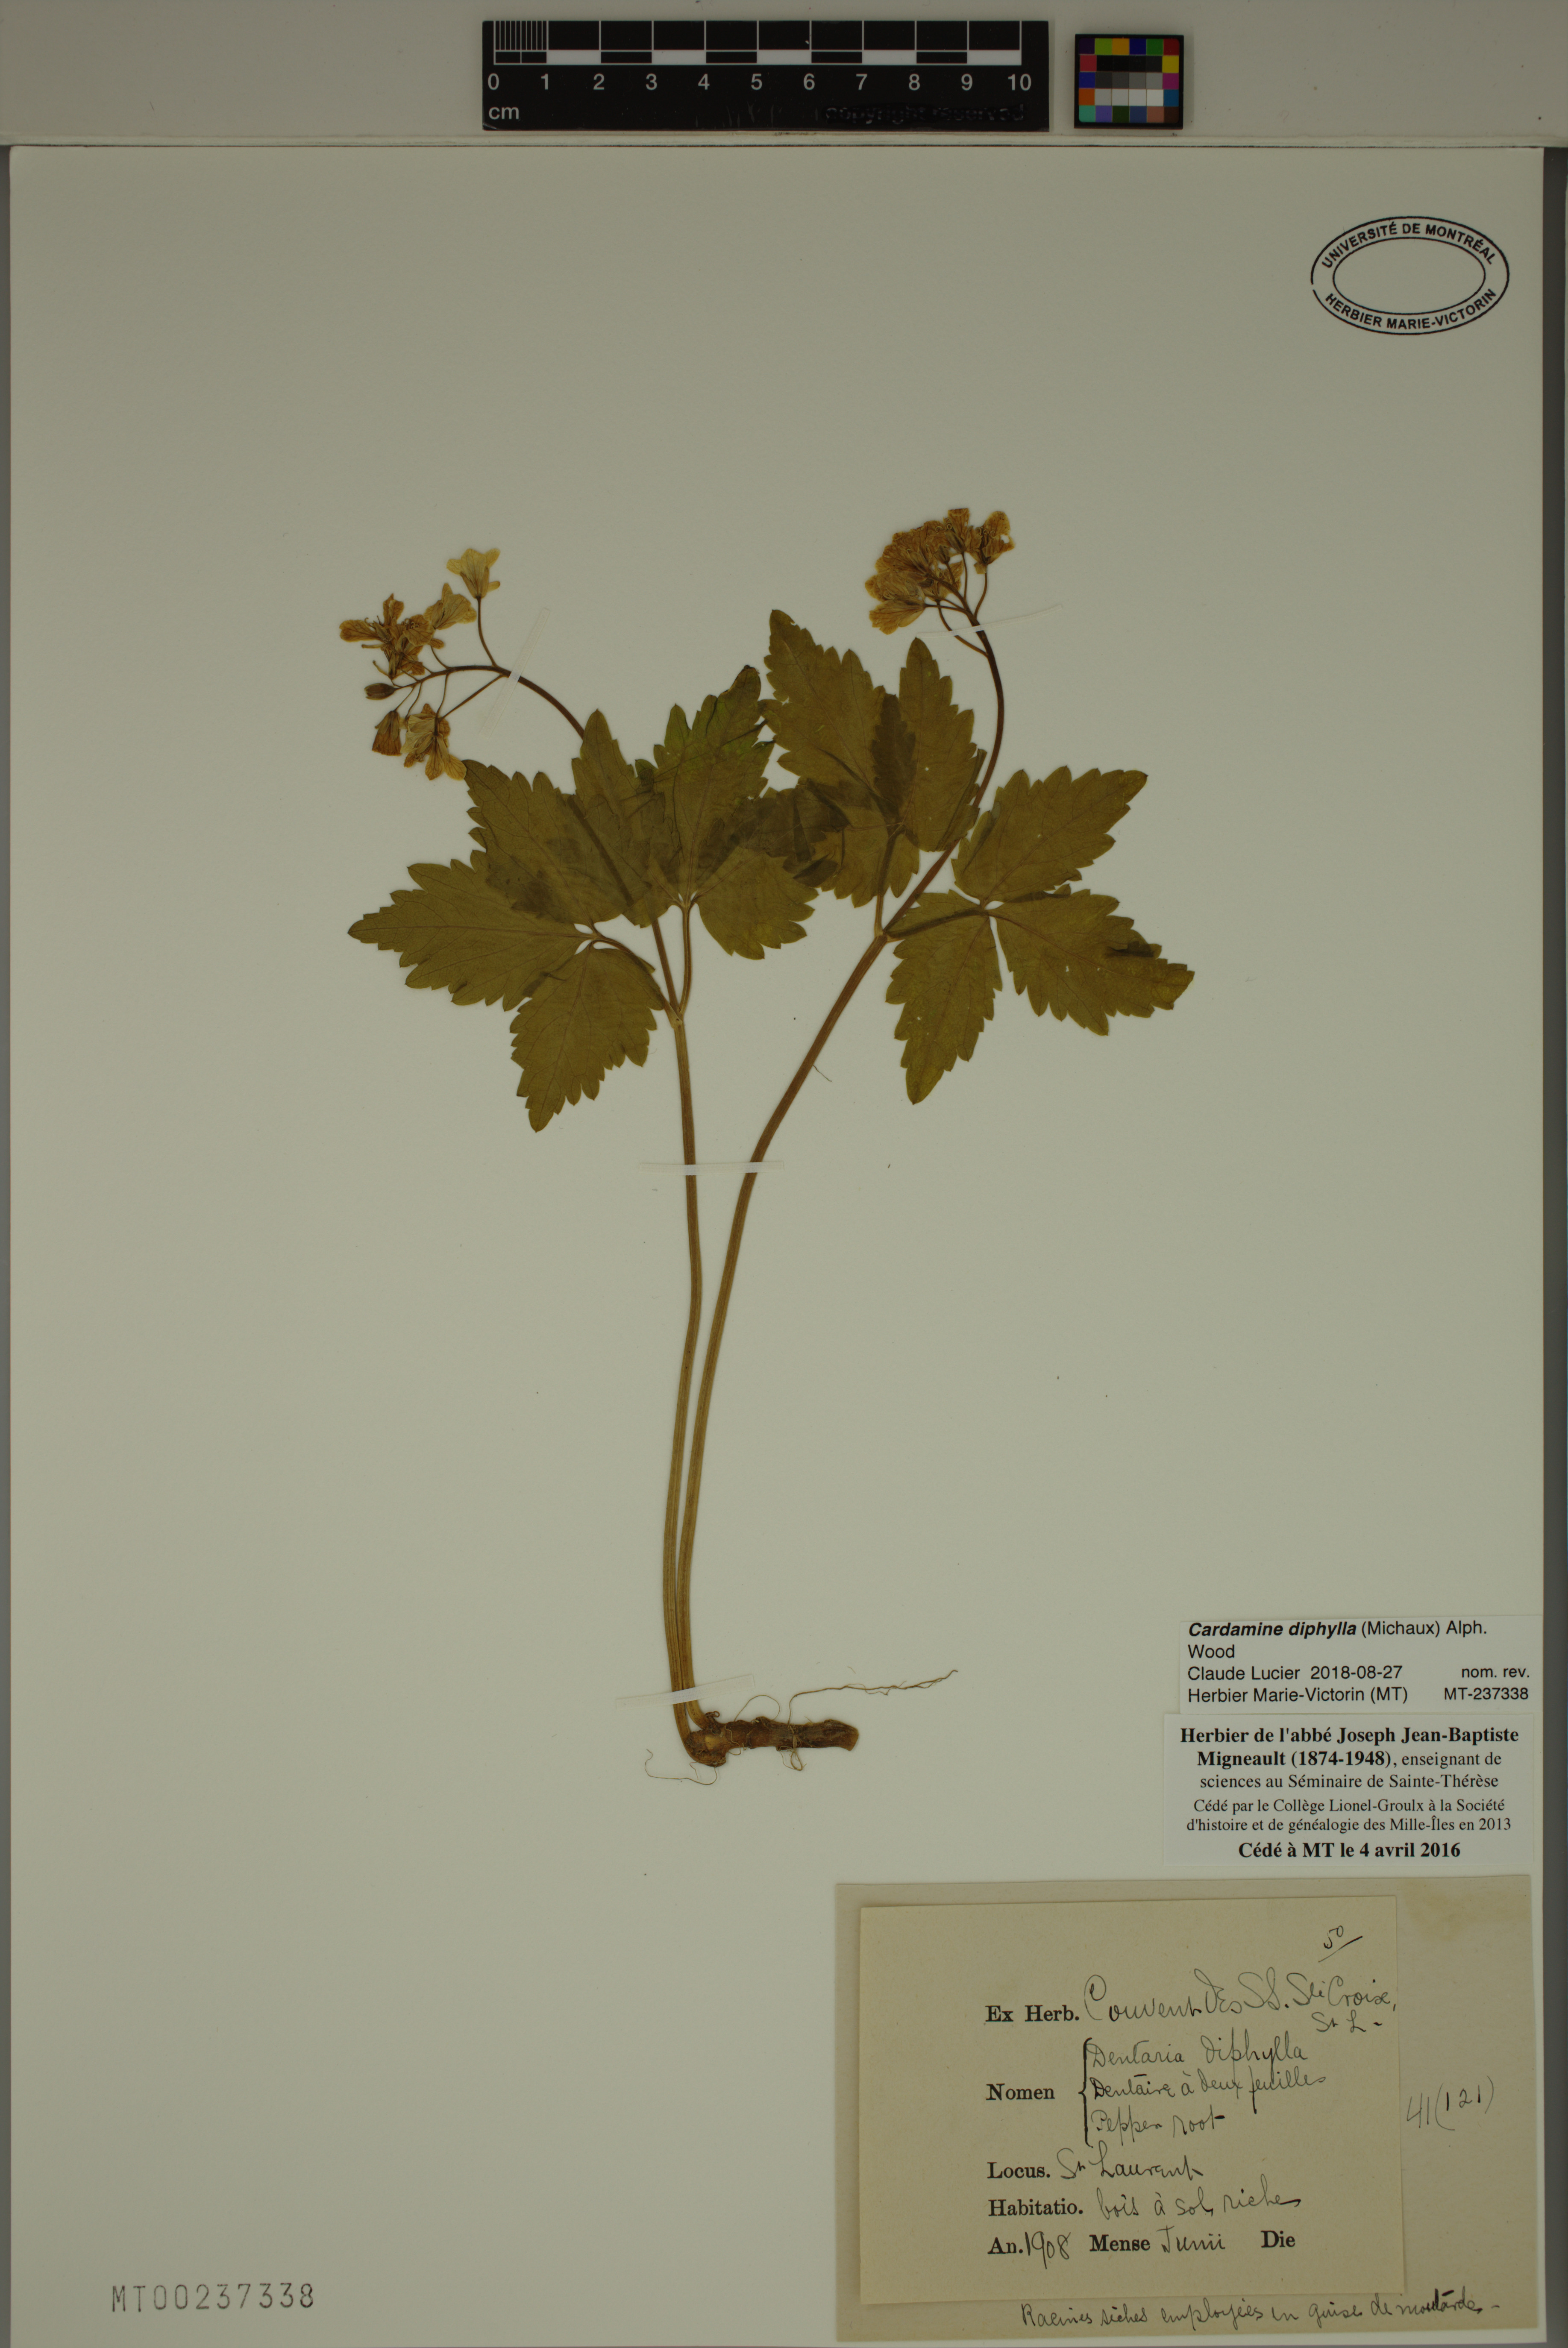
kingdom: Plantae
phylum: Tracheophyta
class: Magnoliopsida
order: Brassicales
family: Brassicaceae
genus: Cardamine
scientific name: Cardamine diphylla
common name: Broad-leaved toothwort
